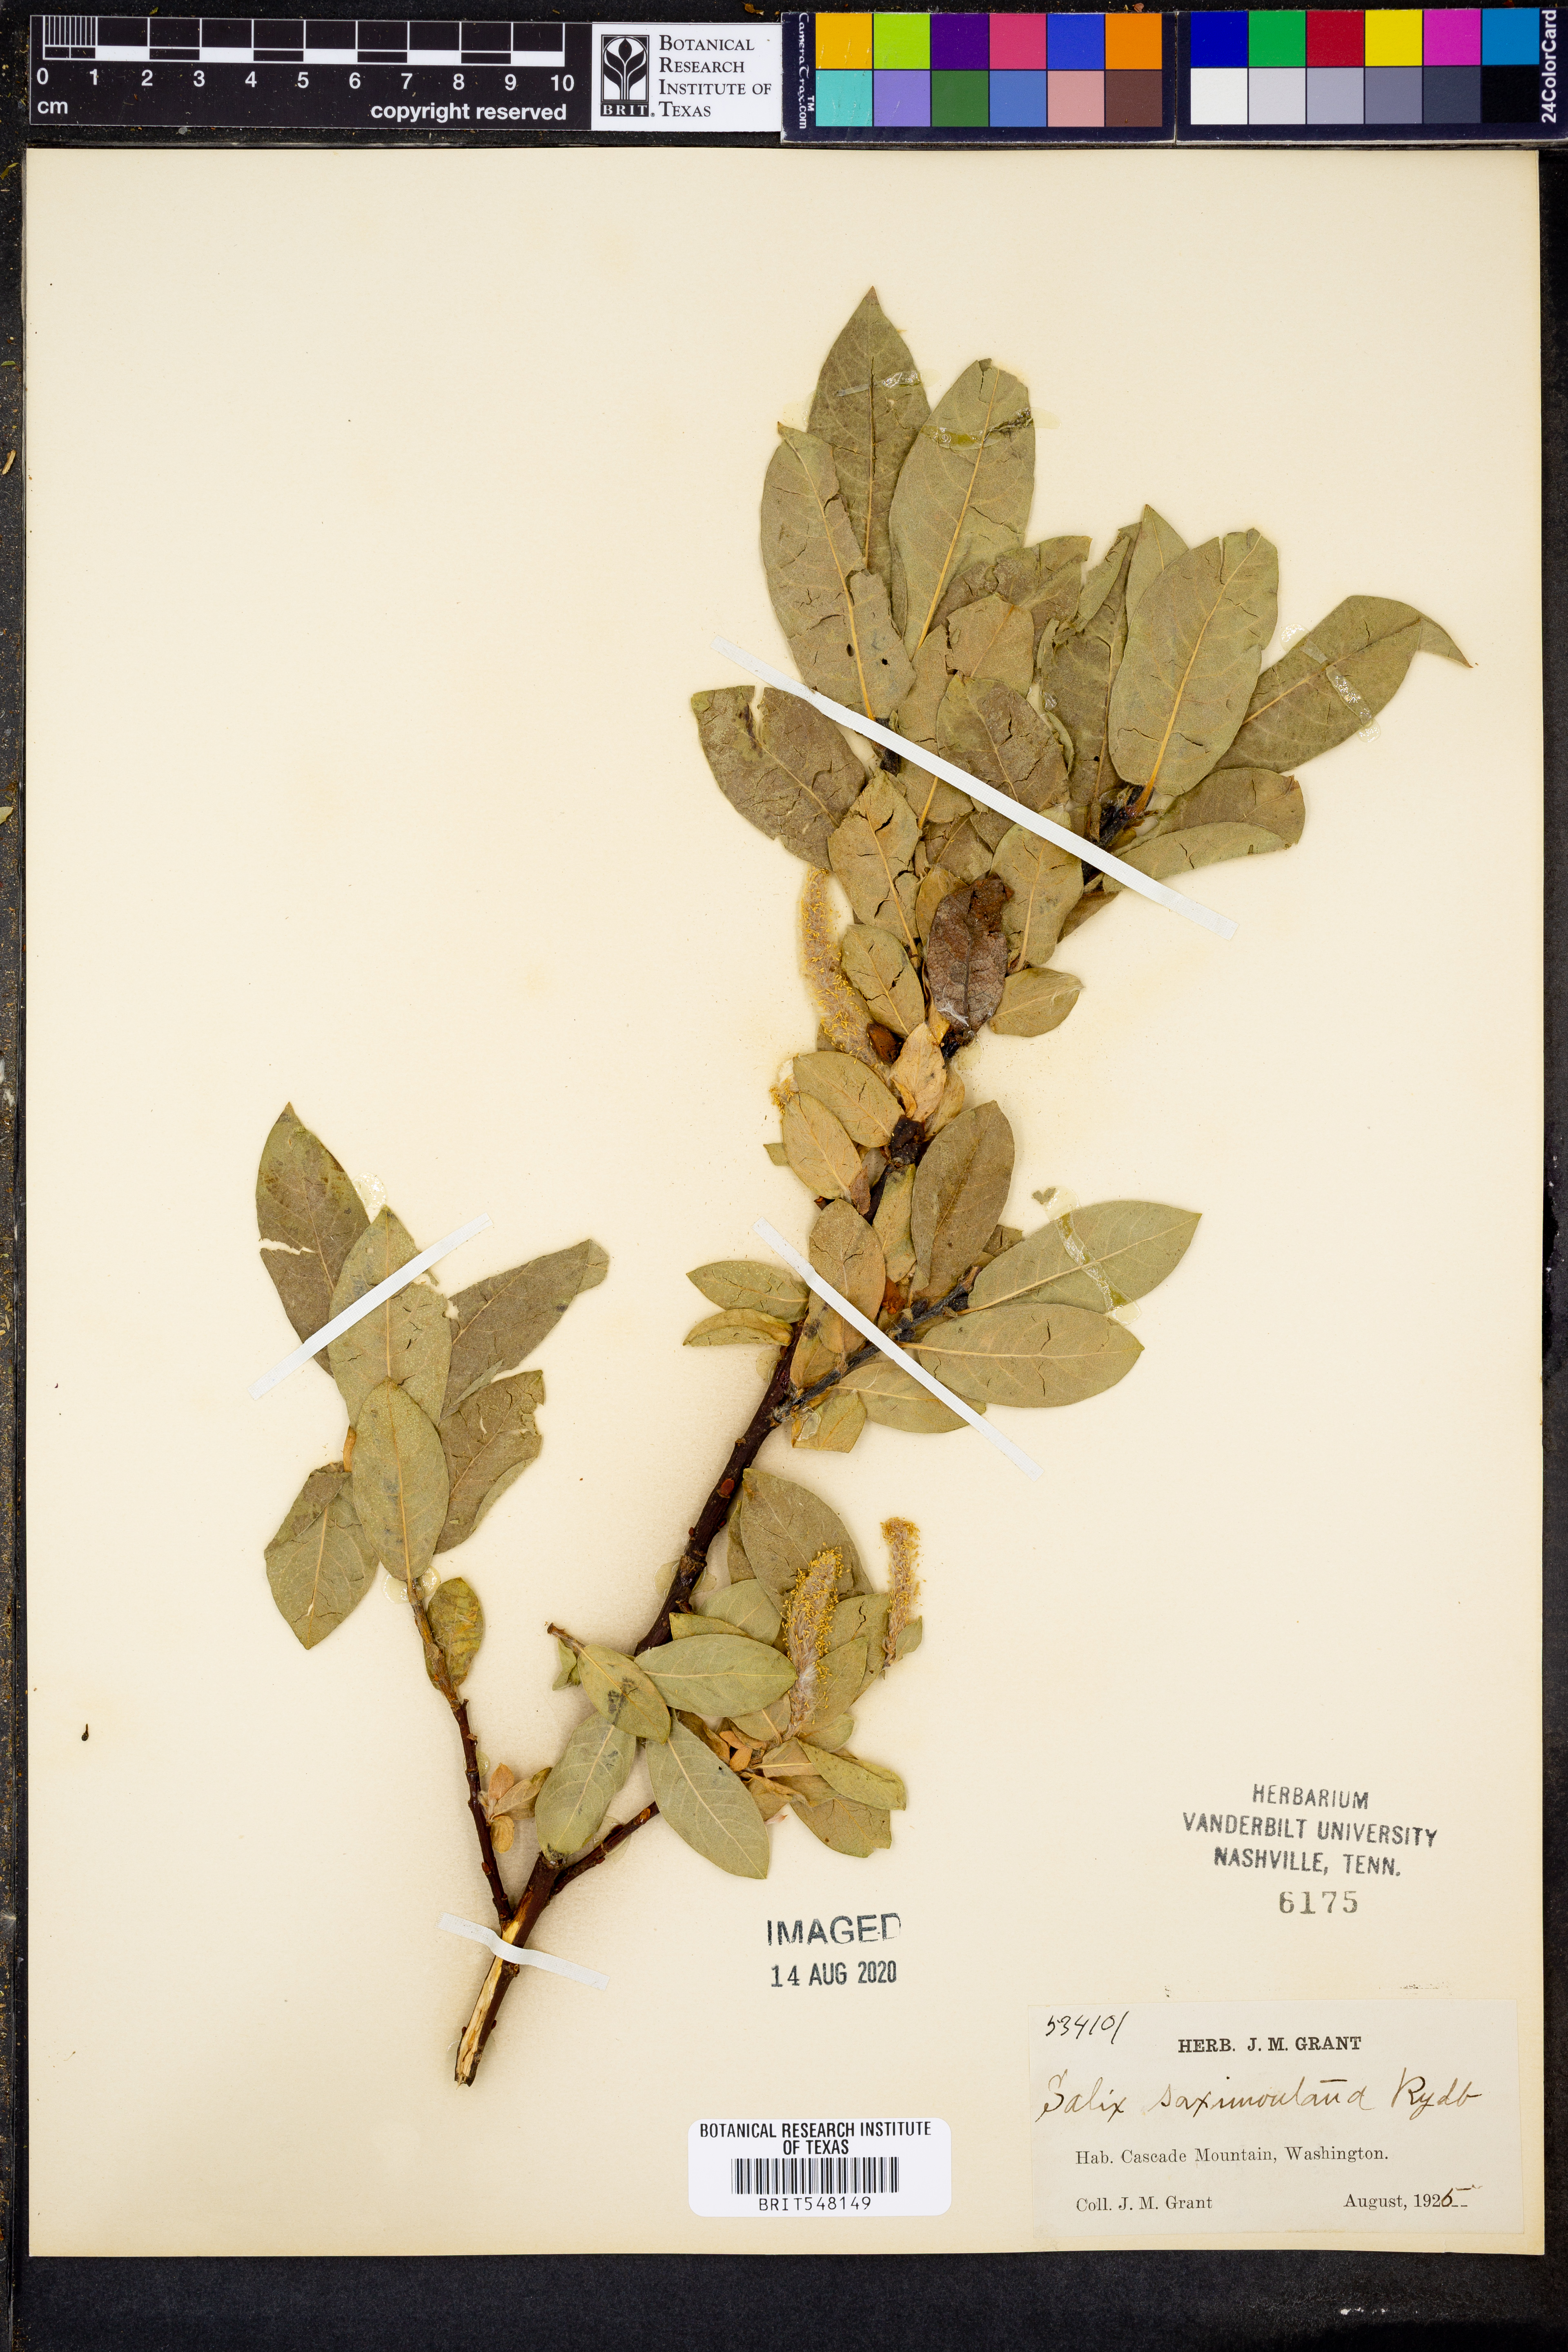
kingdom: Plantae
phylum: Tracheophyta
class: Magnoliopsida
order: Malpighiales
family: Salicaceae
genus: Salix
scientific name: Salix nivalis
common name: Dwarf snow willow
